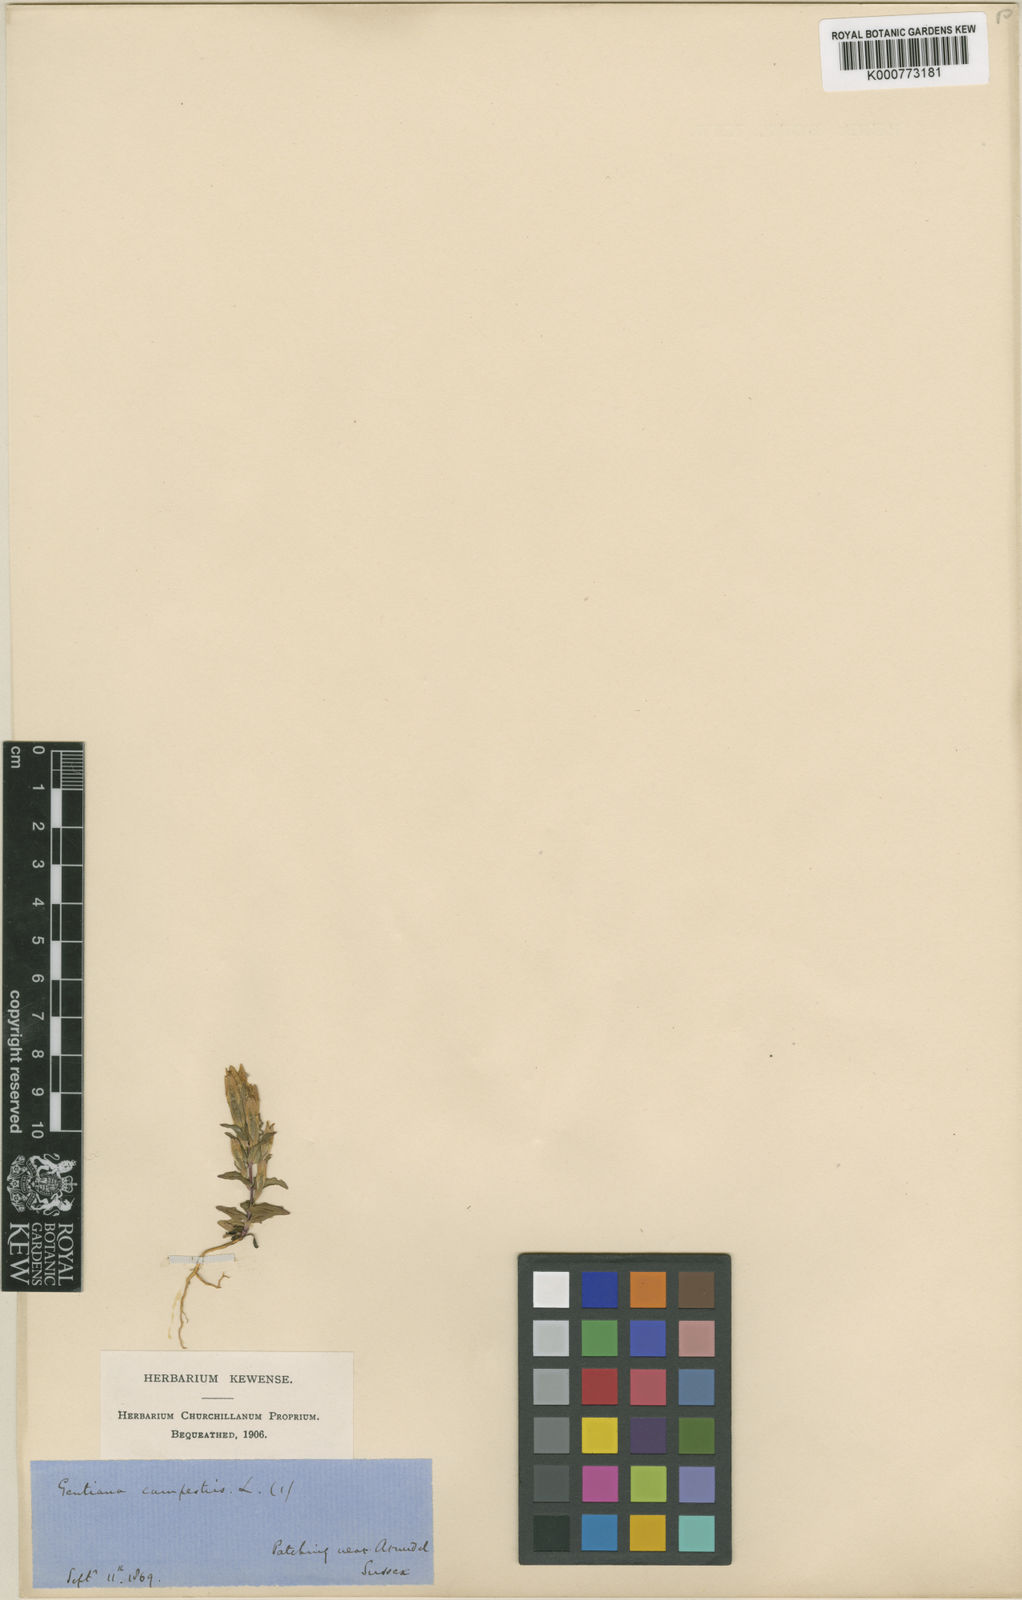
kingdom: Plantae
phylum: Tracheophyta
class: Magnoliopsida
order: Gentianales
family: Gentianaceae
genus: Gentianella
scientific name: Gentianella
